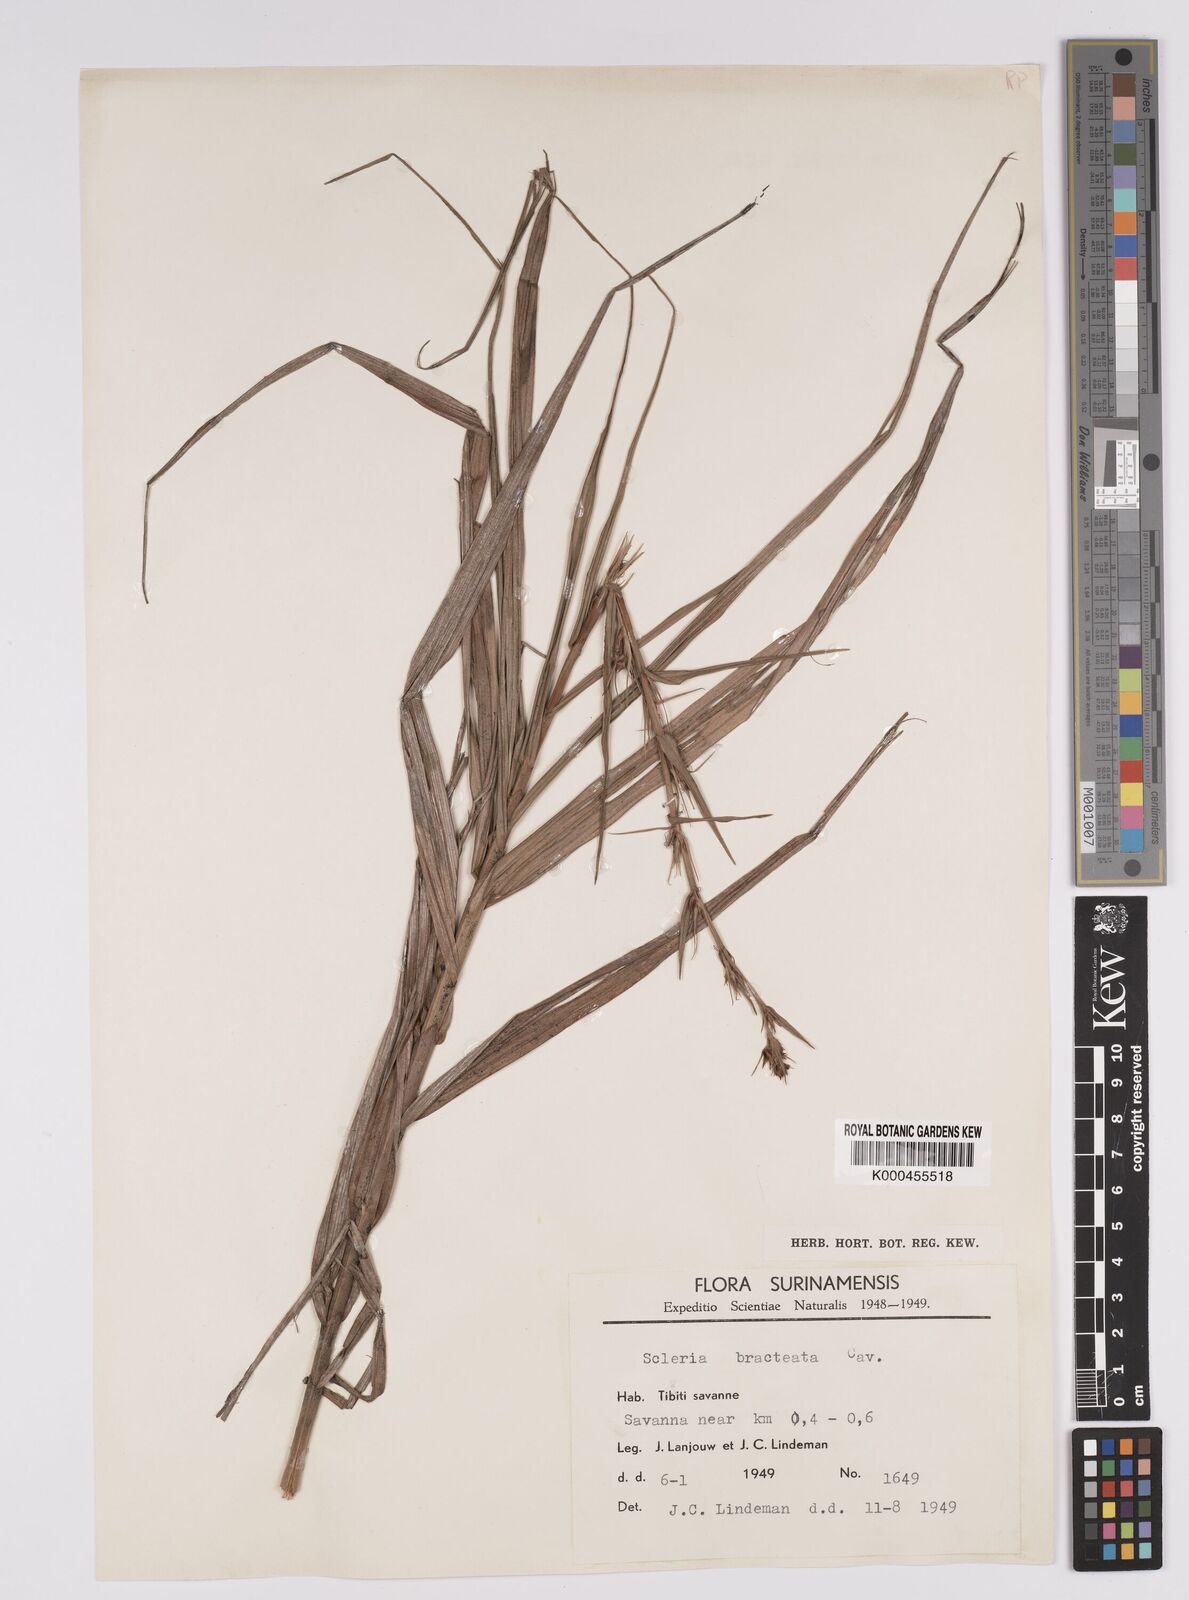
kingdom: Plantae
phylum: Tracheophyta
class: Liliopsida
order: Poales
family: Cyperaceae
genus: Scleria
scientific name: Scleria bracteata
